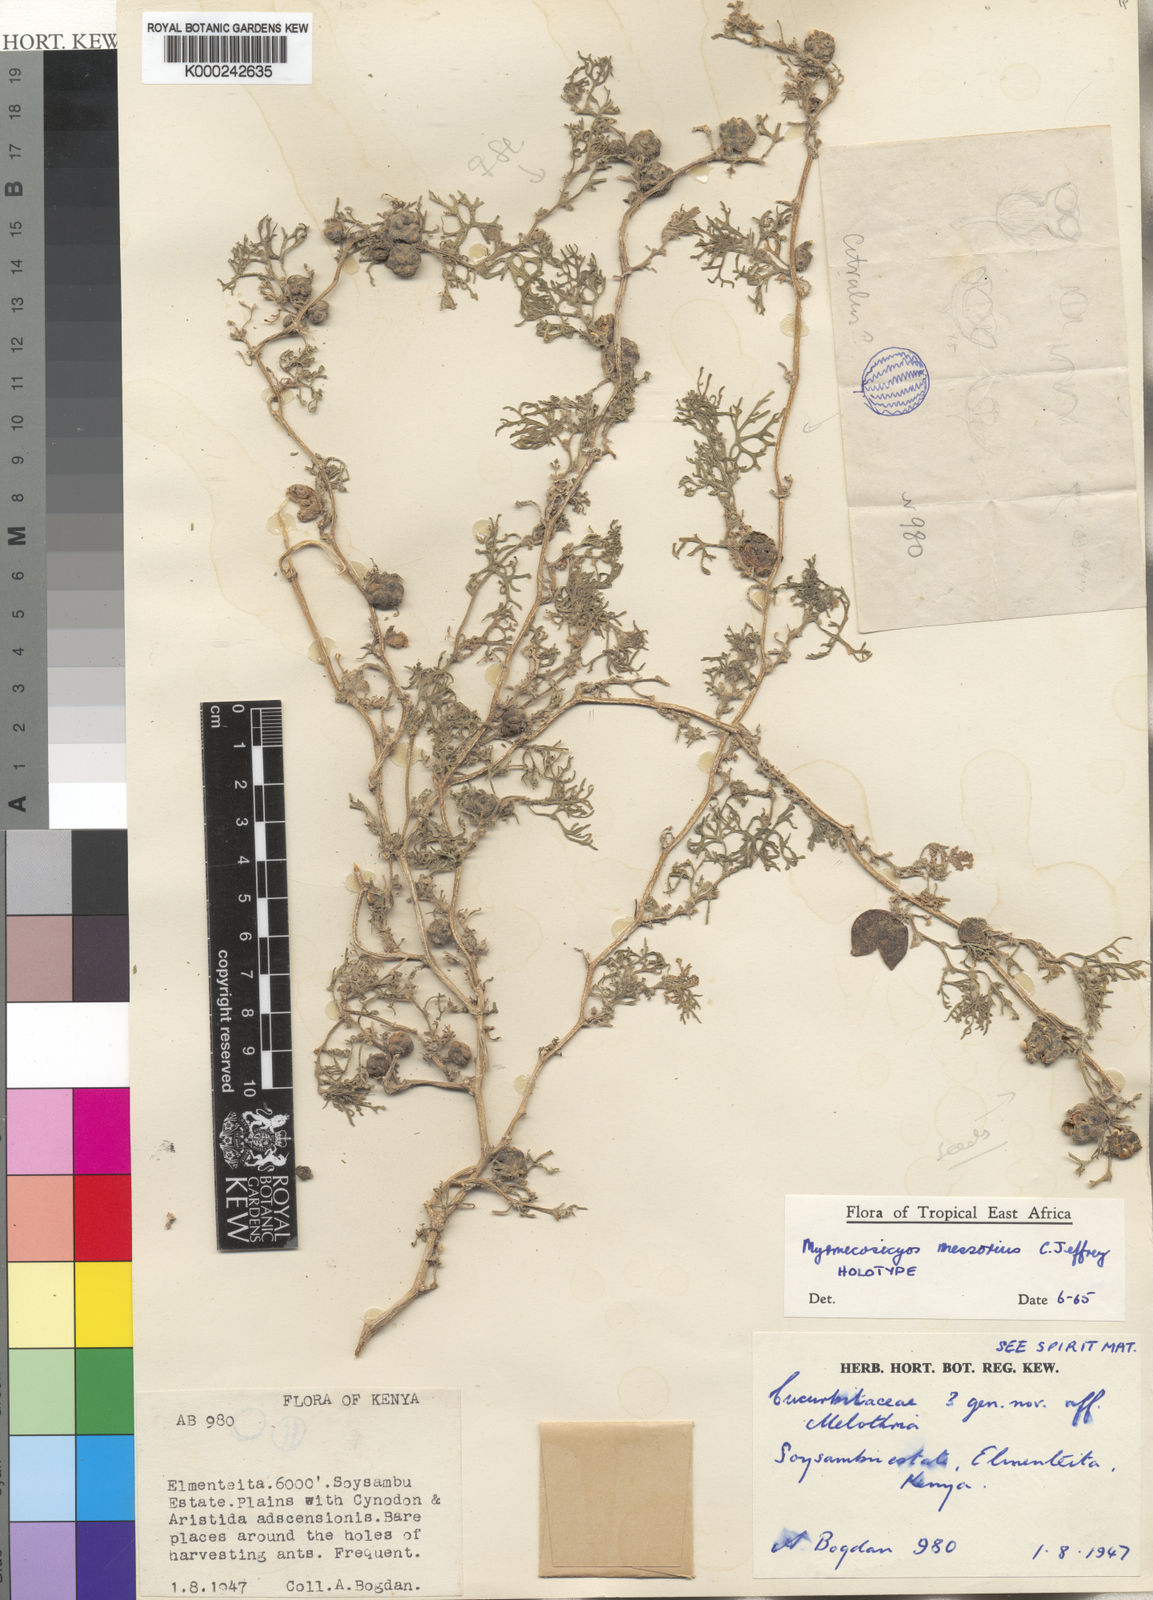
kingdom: Plantae
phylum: Tracheophyta
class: Magnoliopsida
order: Cucurbitales
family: Cucurbitaceae
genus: Cucumis
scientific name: Cucumis messorius
